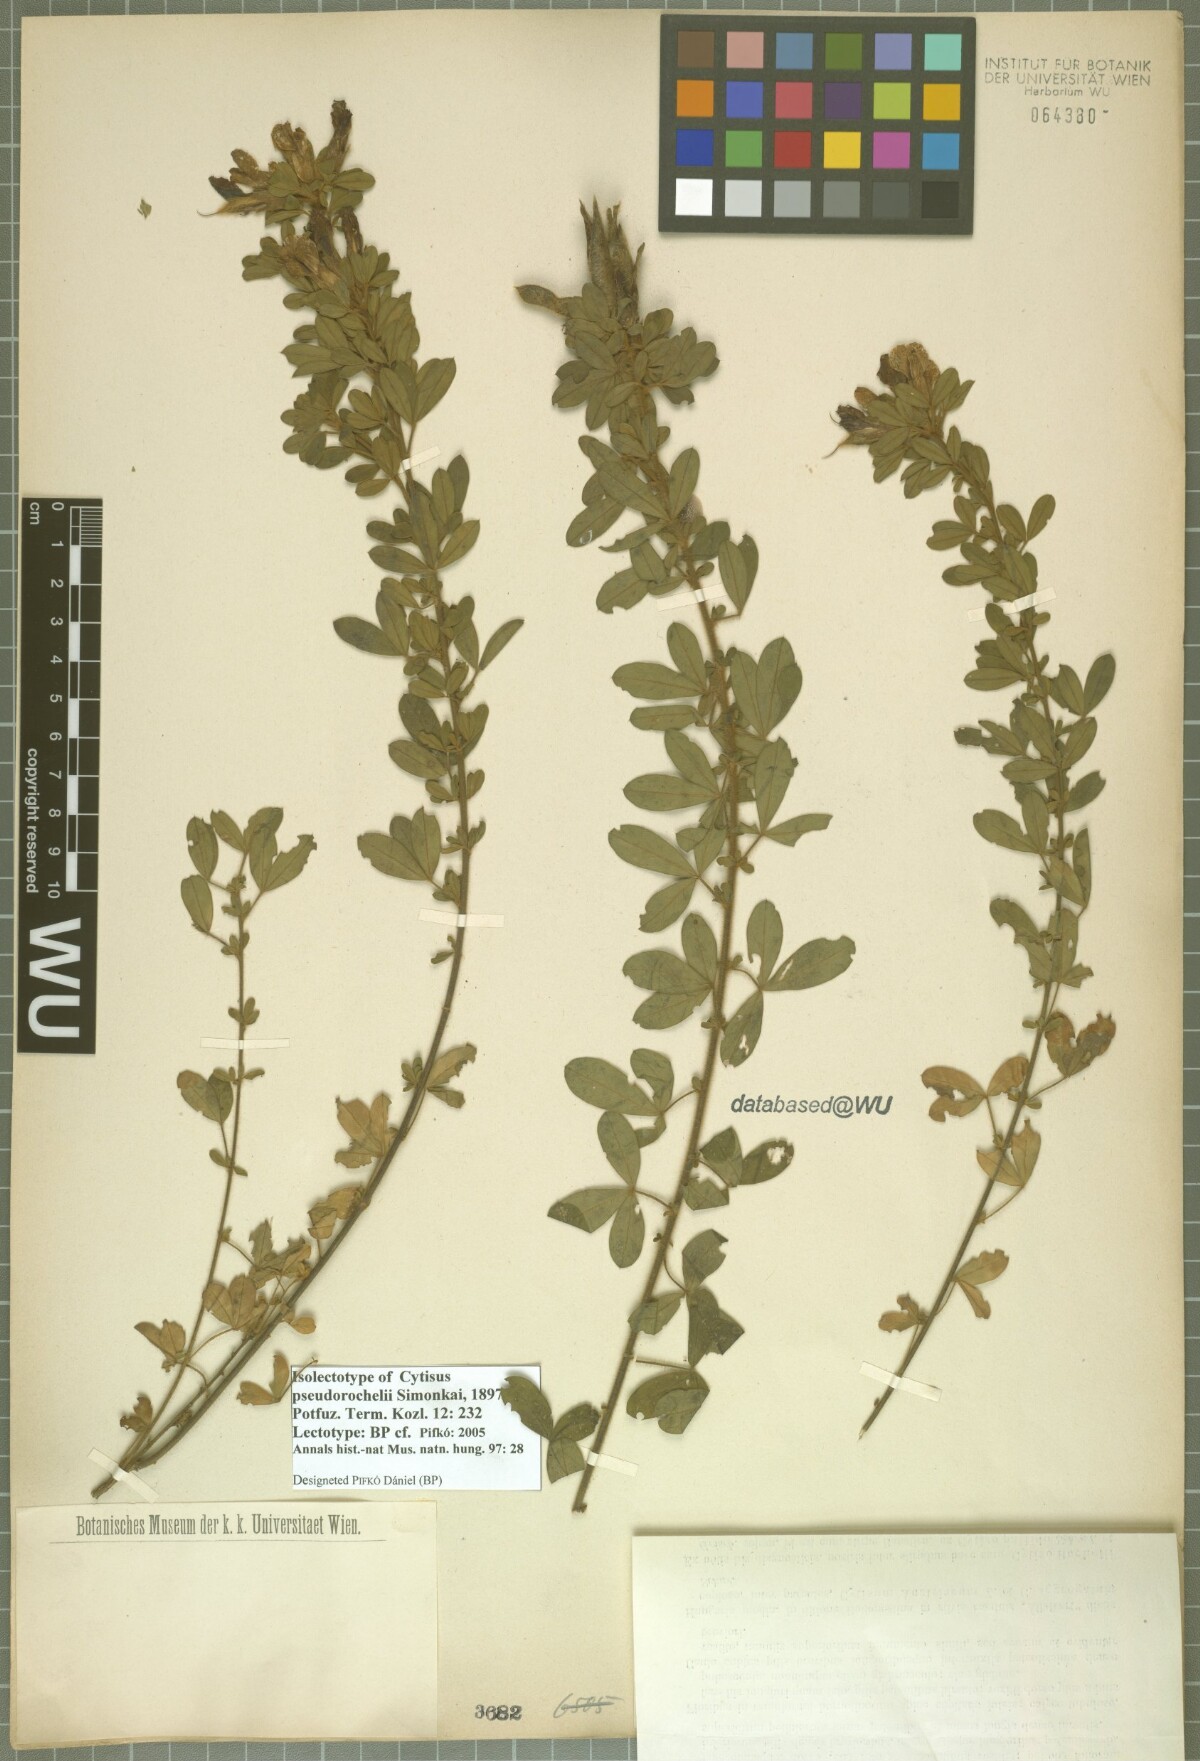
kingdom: Plantae
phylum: Tracheophyta
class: Magnoliopsida
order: Fabales
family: Fabaceae
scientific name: Fabaceae
